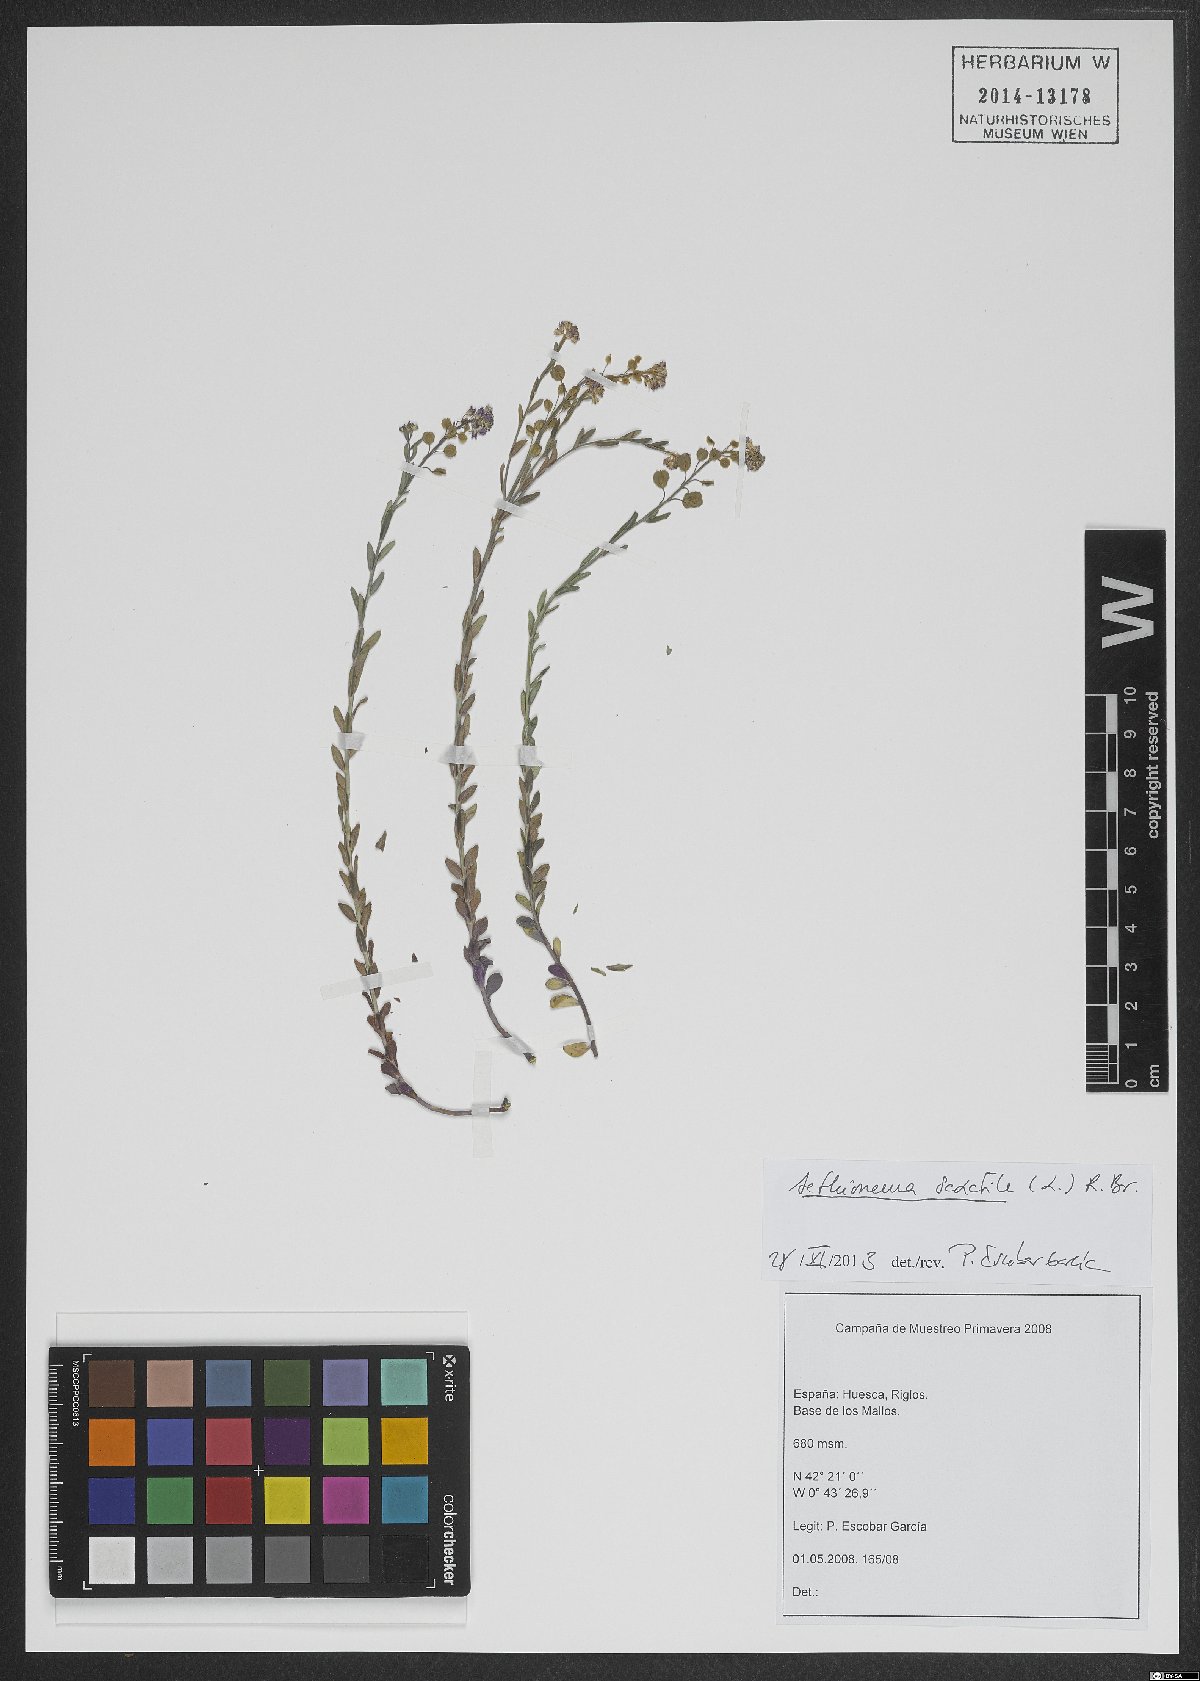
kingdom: Plantae
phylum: Tracheophyta
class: Magnoliopsida
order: Brassicales
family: Brassicaceae
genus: Aethionema
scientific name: Aethionema saxatile
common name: Burnt candytuft
